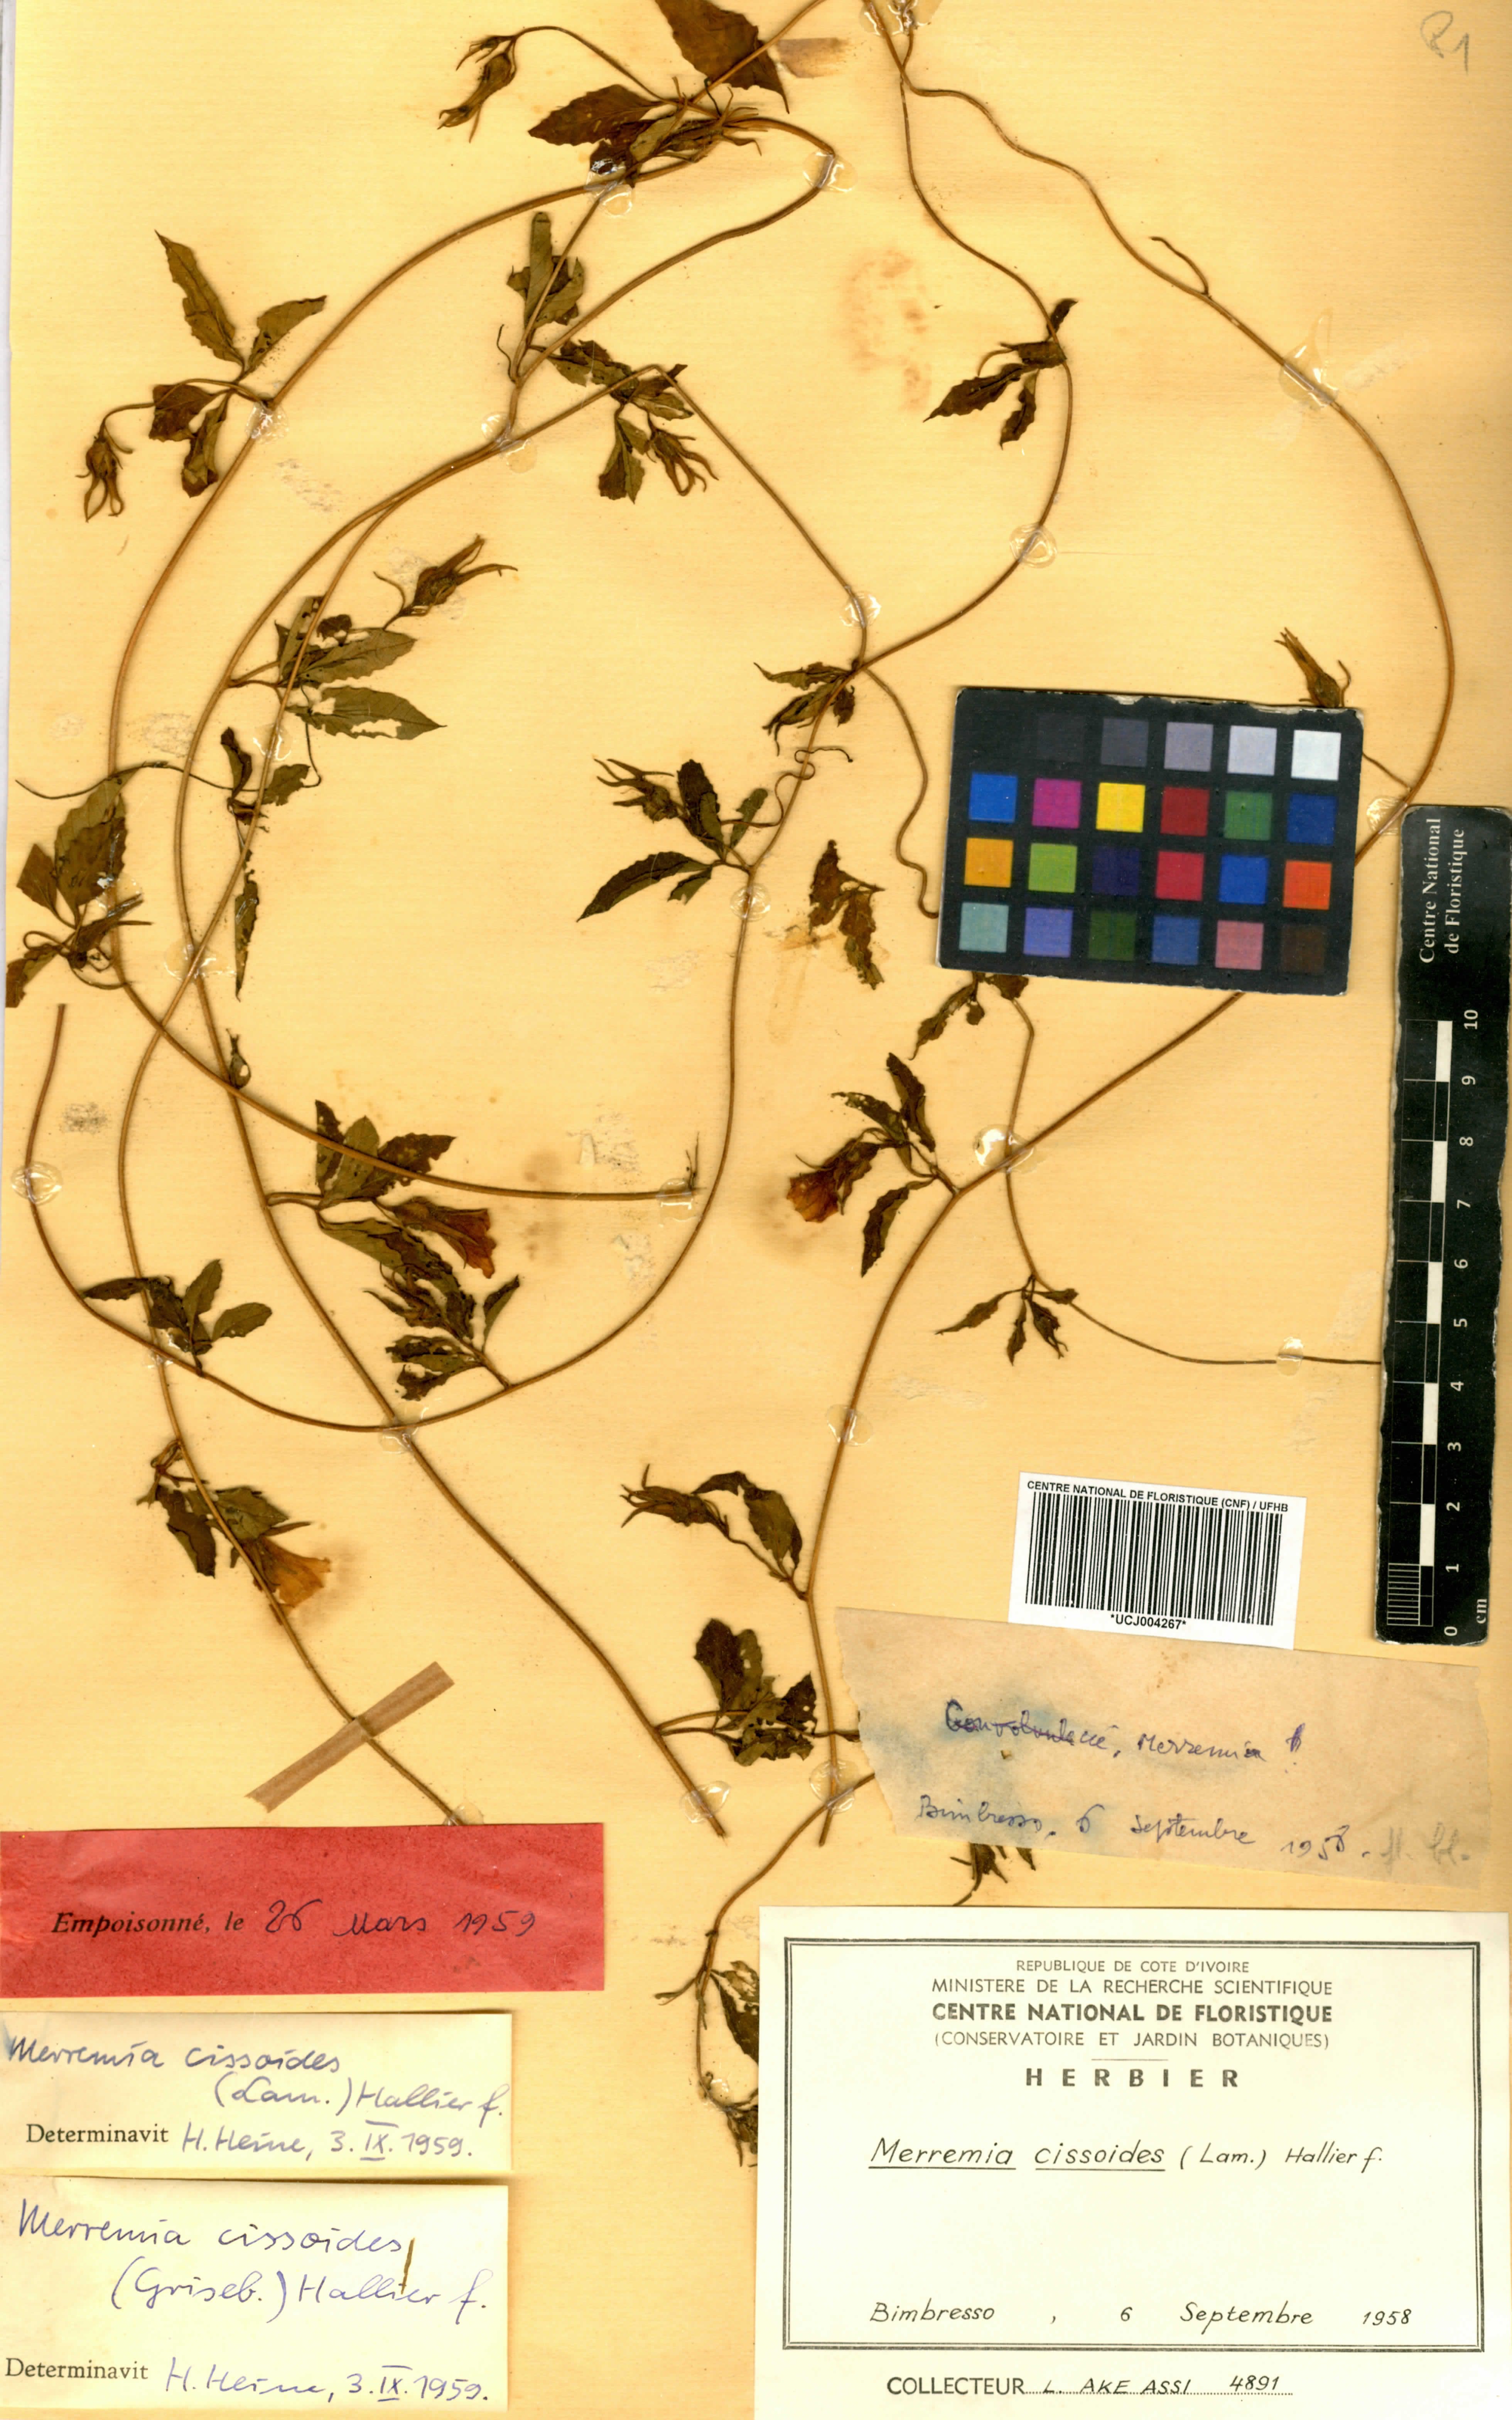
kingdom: Plantae
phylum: Tracheophyta
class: Magnoliopsida
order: Solanales
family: Convolvulaceae
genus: Distimake
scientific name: Distimake cissoides
